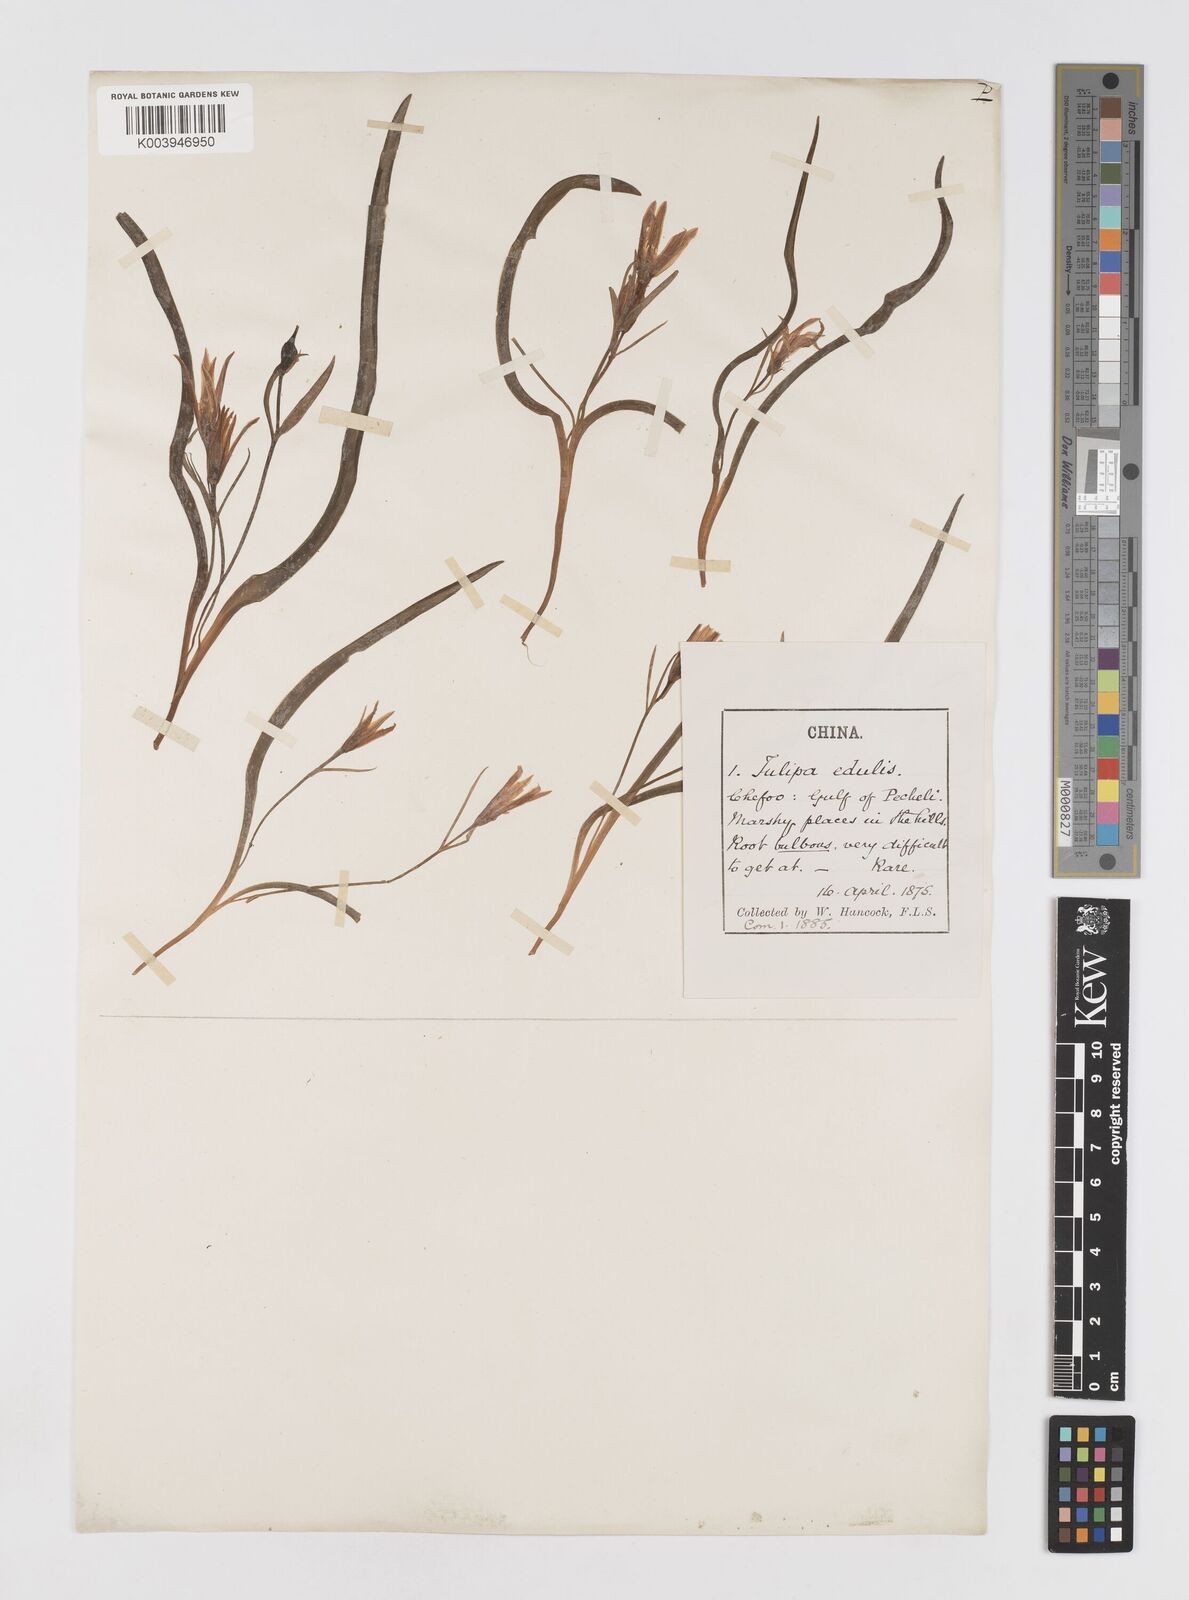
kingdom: Plantae
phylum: Tracheophyta
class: Liliopsida
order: Liliales
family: Liliaceae
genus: Amana
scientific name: Amana edulis
